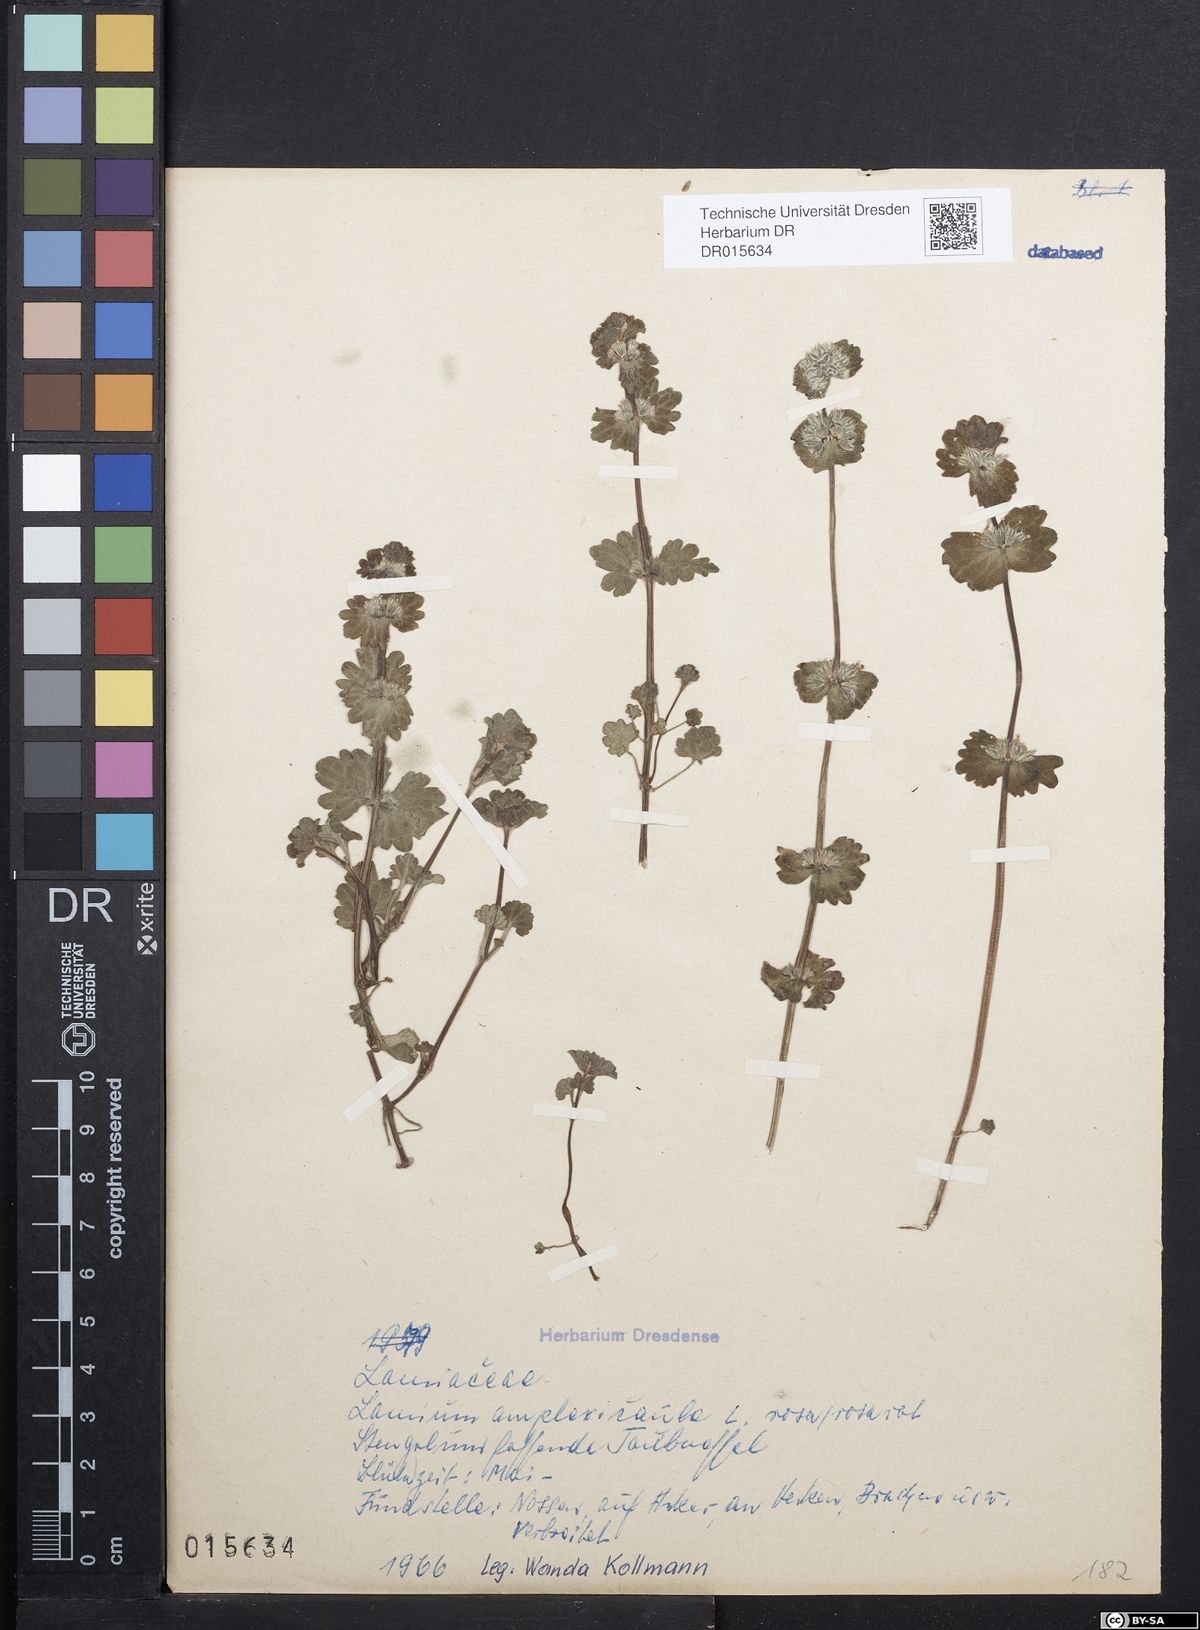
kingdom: Plantae
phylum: Tracheophyta
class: Magnoliopsida
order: Lamiales
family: Lamiaceae
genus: Lamium
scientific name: Lamium amplexicaule
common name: Henbit dead-nettle
